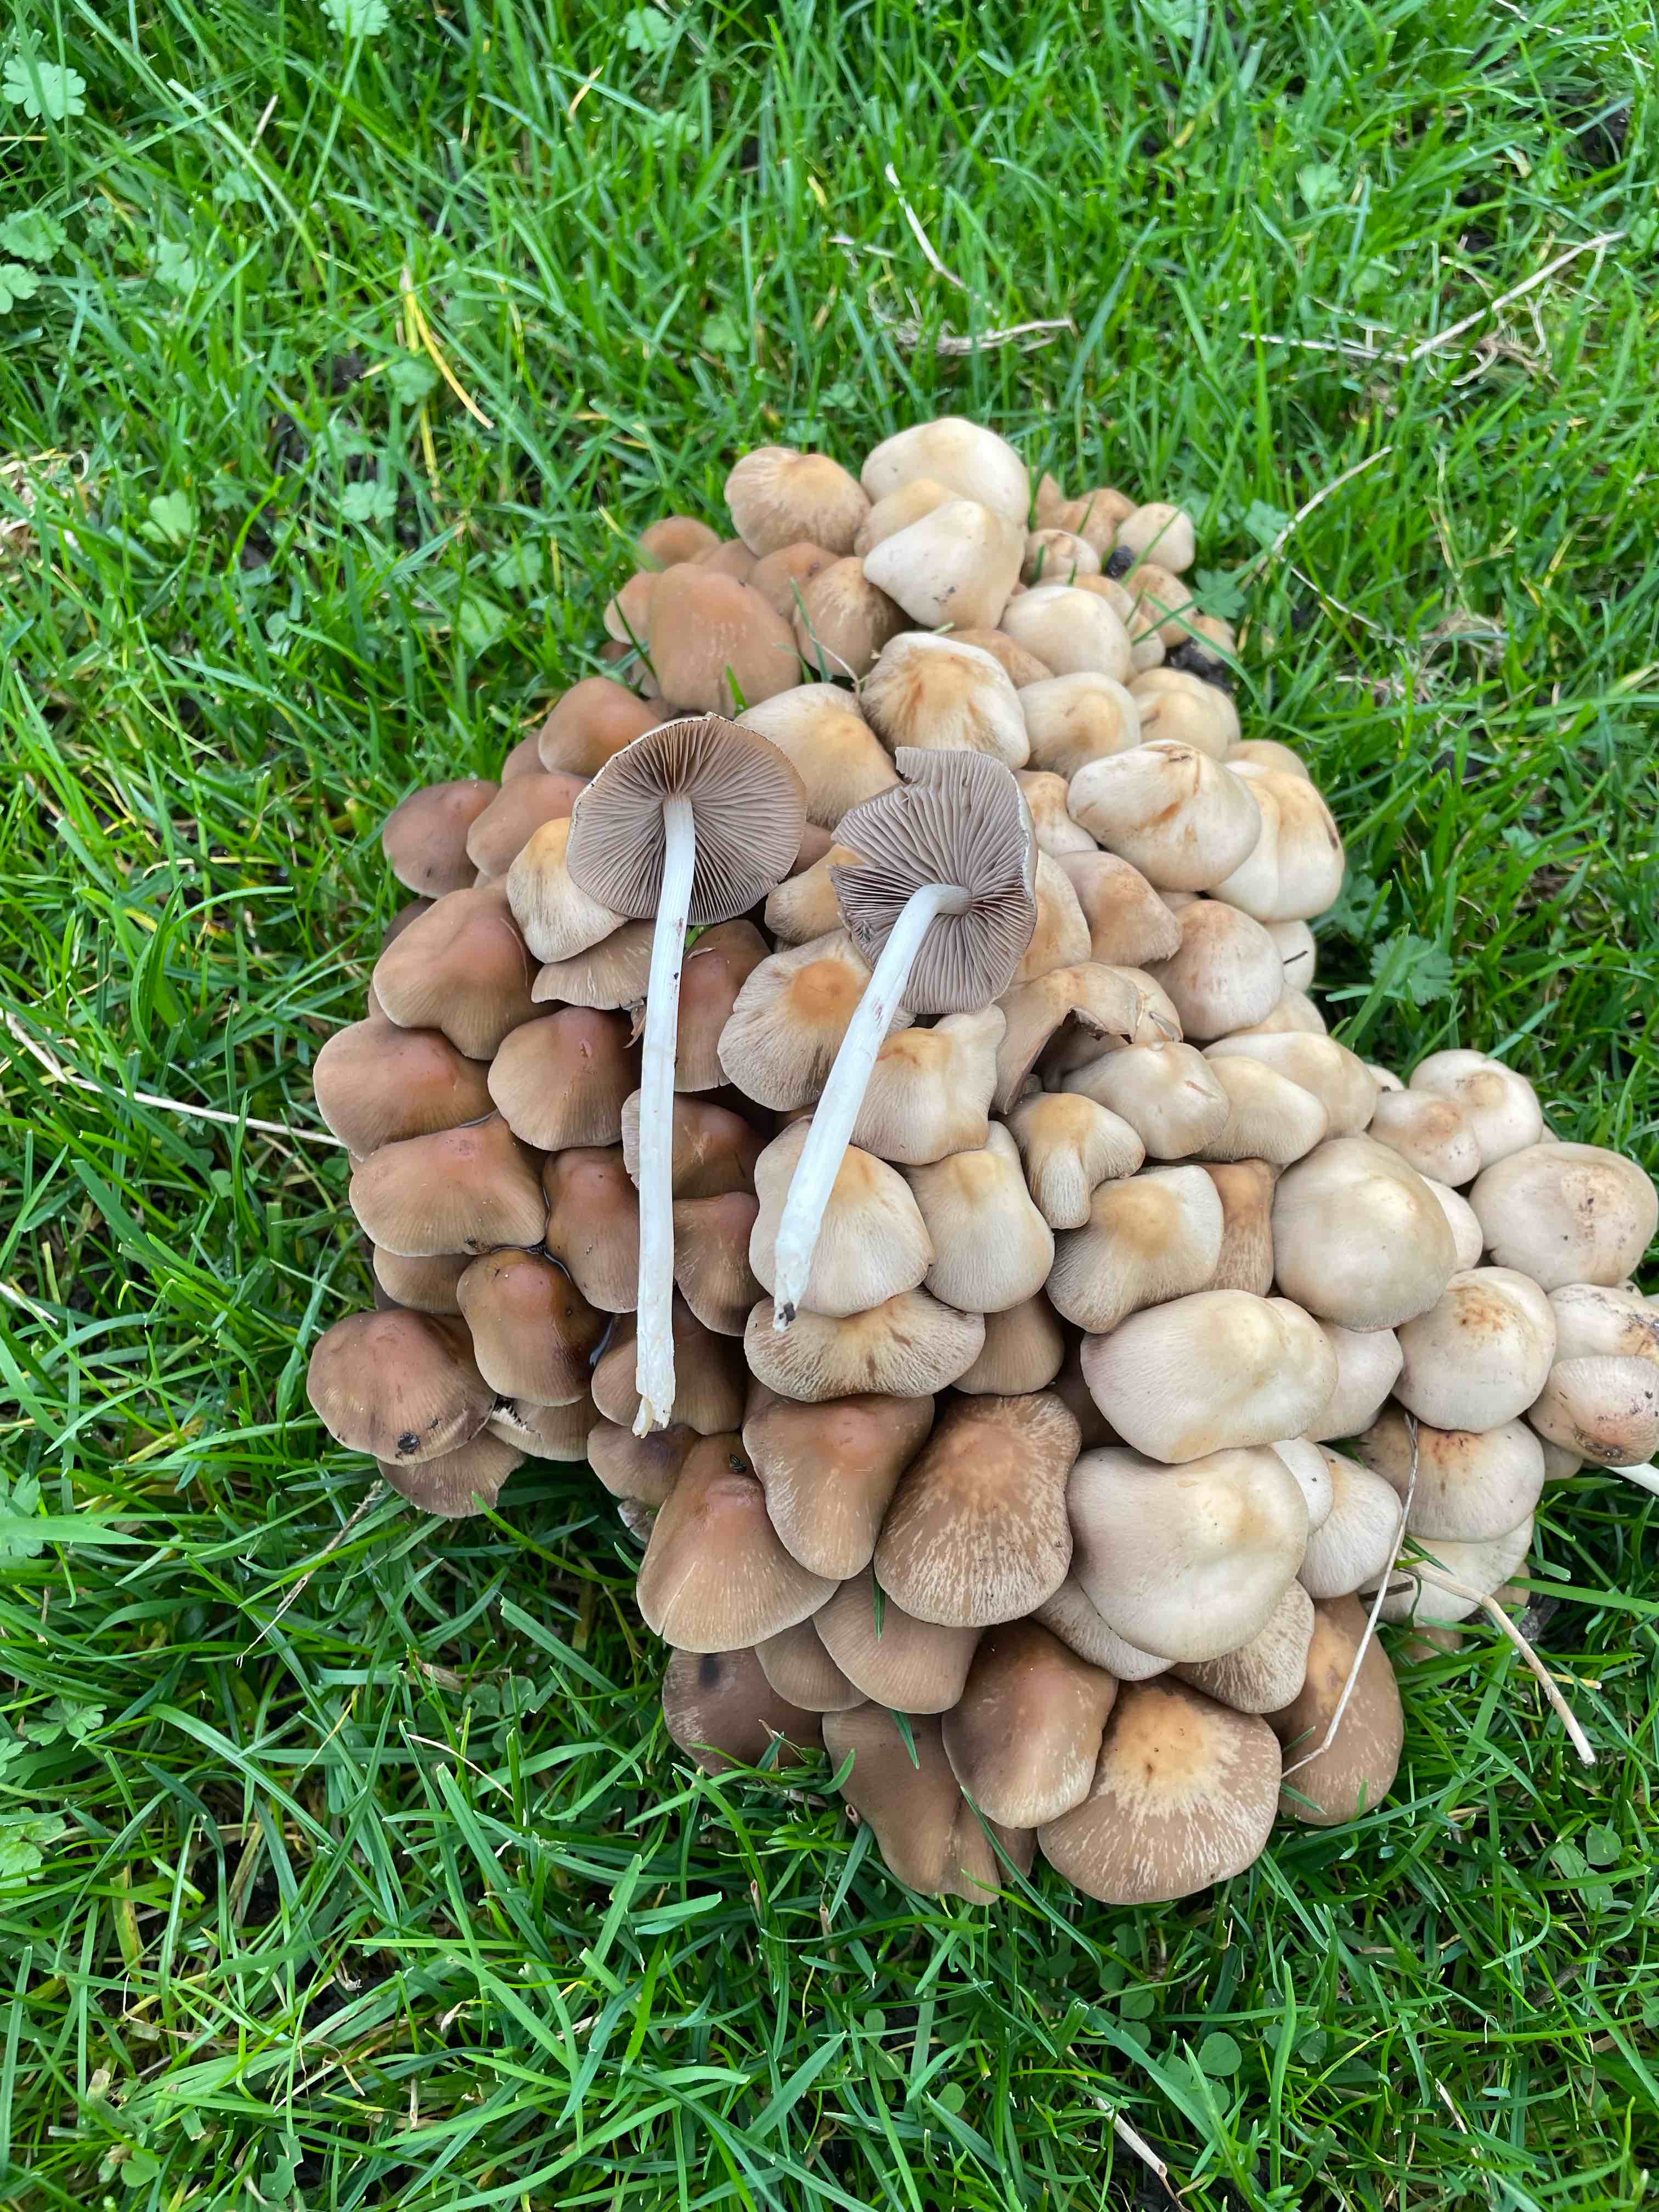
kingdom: Fungi
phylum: Basidiomycota
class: Agaricomycetes
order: Agaricales
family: Psathyrellaceae
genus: Britzelmayria
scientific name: Britzelmayria multipedata
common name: knippe-mørkhat
